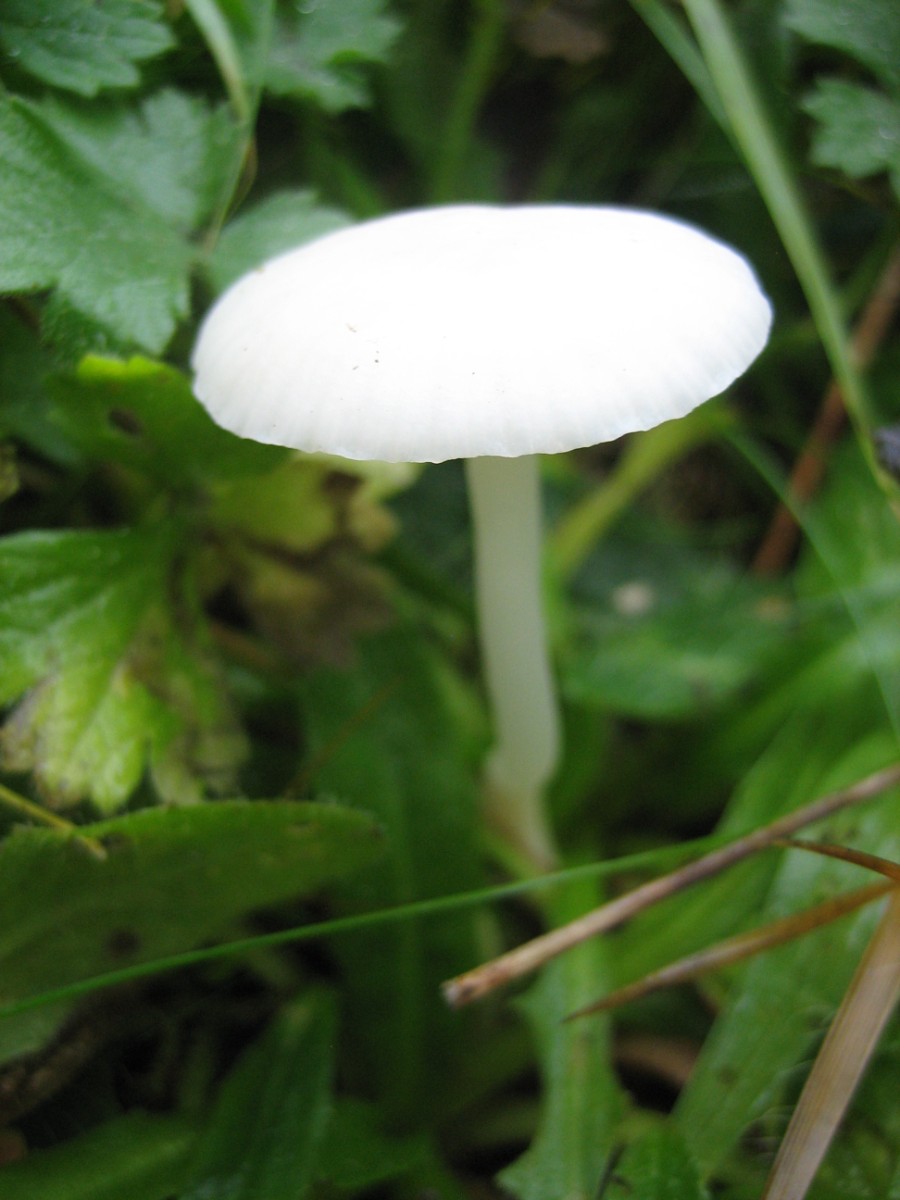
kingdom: Fungi
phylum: Basidiomycota
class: Agaricomycetes
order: Agaricales
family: Hygrophoraceae
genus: Cuphophyllus
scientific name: Cuphophyllus virgineus
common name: snehvid vokshat
